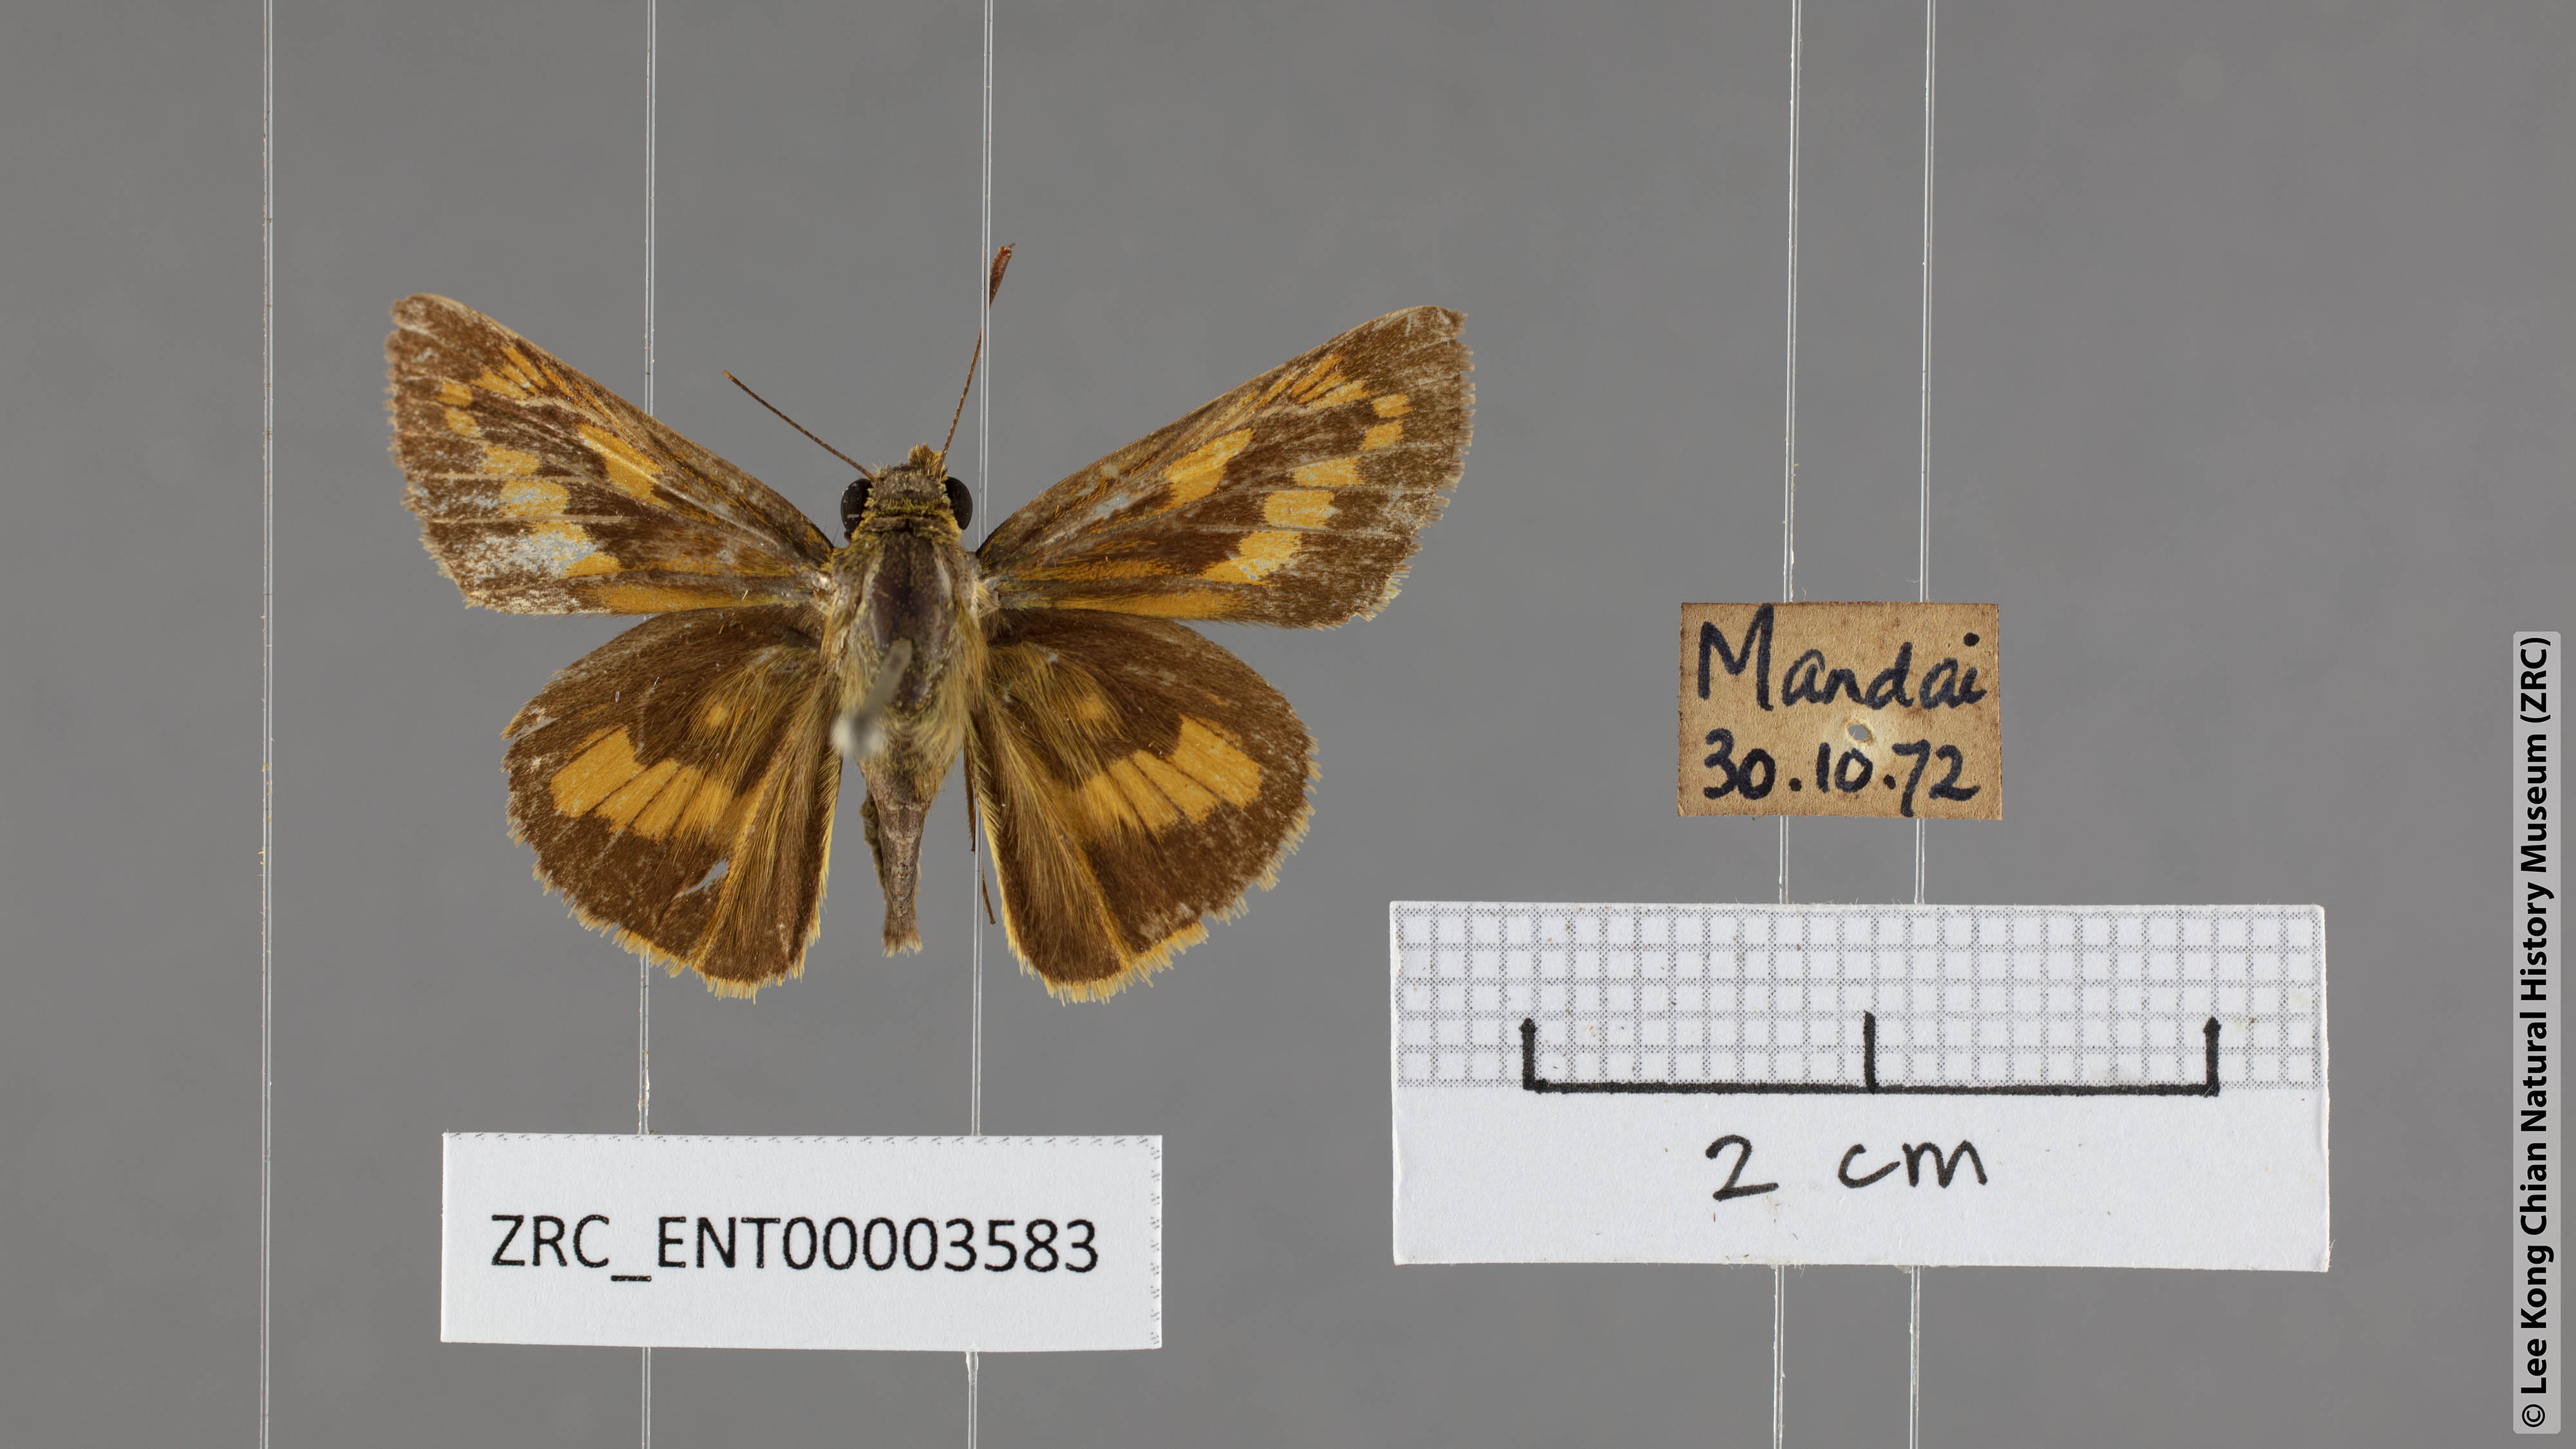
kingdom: Animalia
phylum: Arthropoda
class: Insecta
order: Lepidoptera
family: Hesperiidae
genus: Telicota
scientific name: Telicota besta
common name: Hainan palm dart
